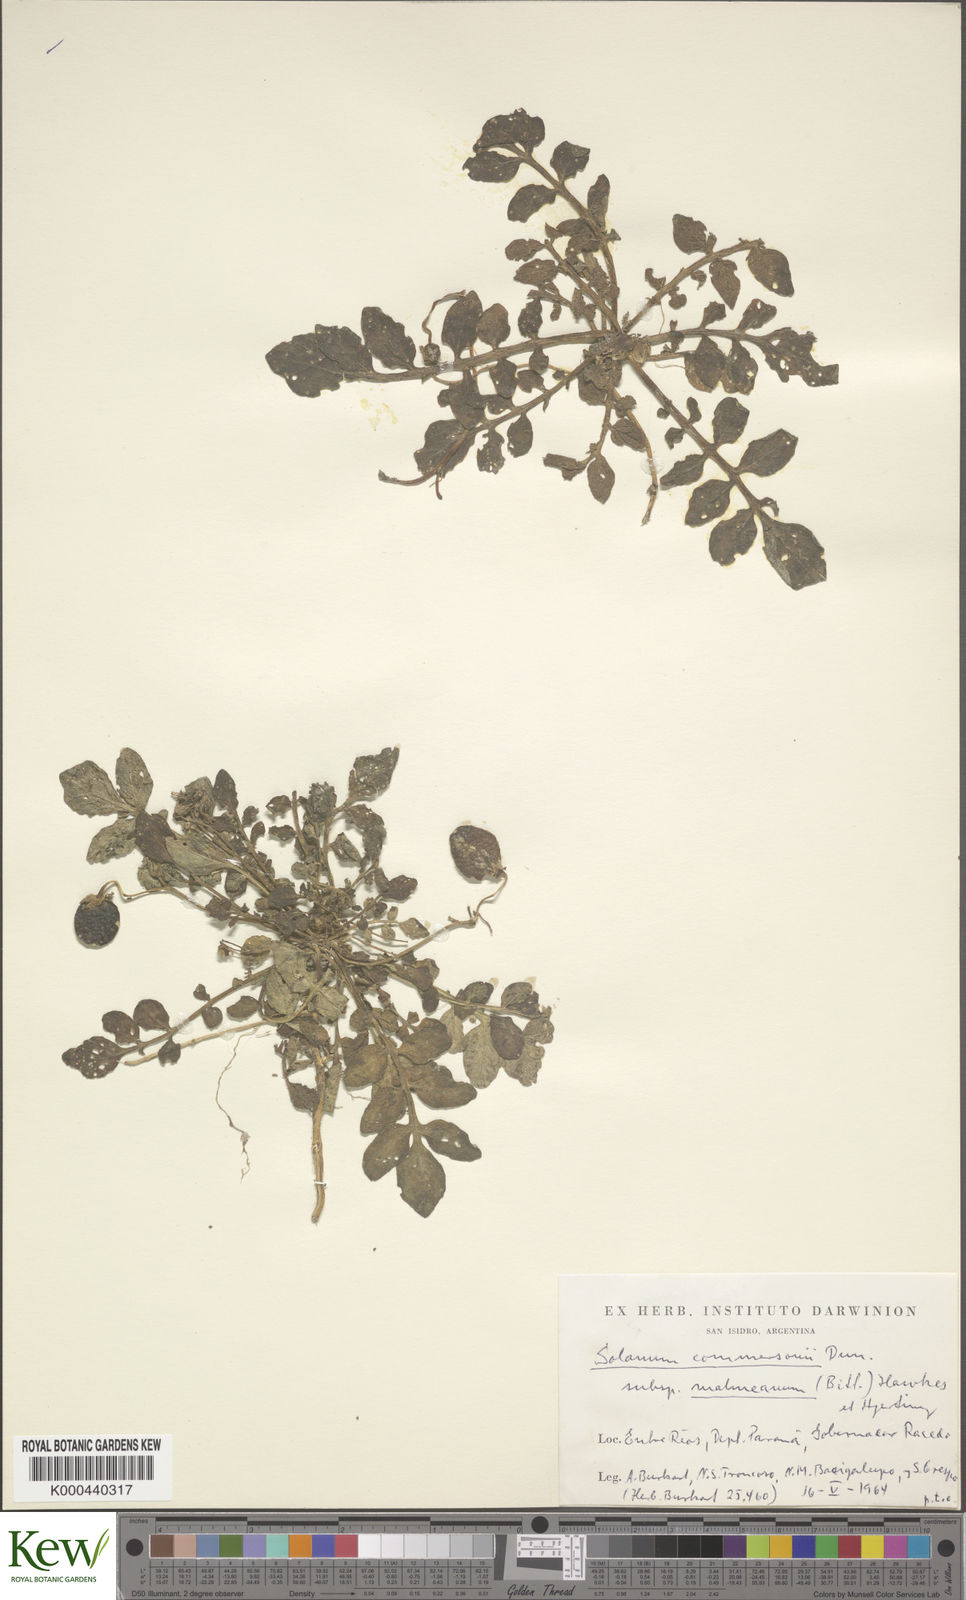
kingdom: Plantae
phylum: Tracheophyta
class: Magnoliopsida
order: Solanales
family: Solanaceae
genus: Solanum
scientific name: Solanum malmeanum
